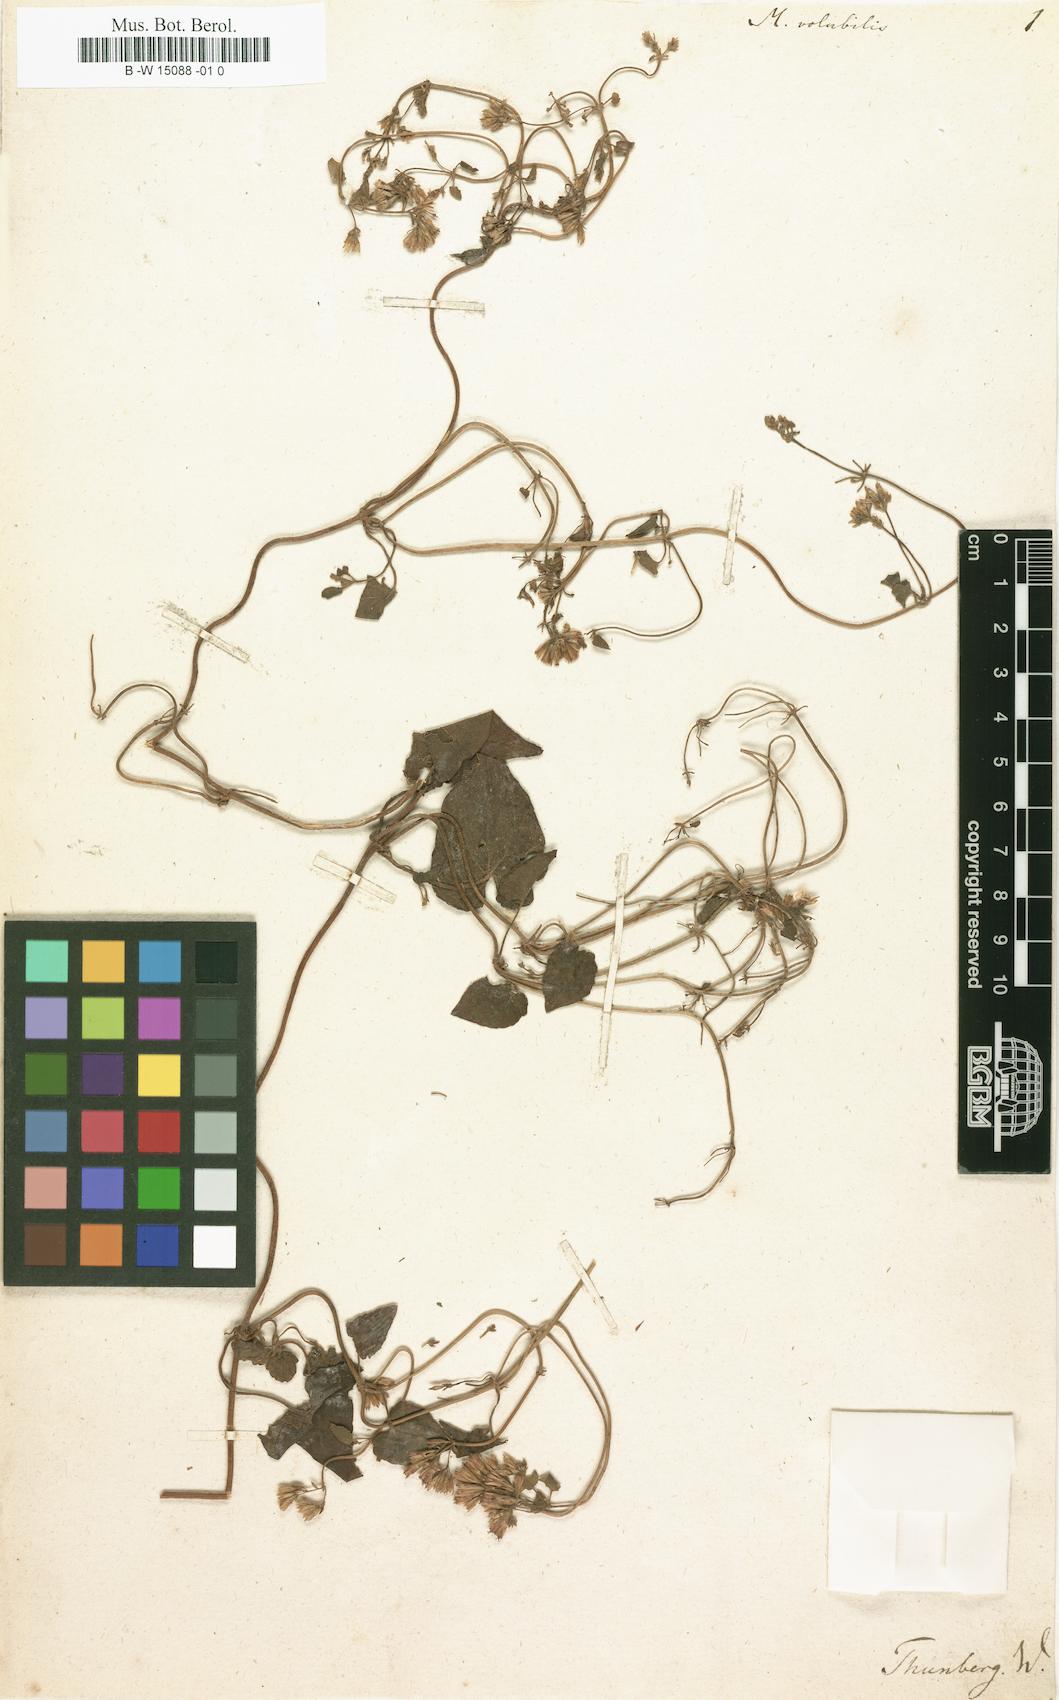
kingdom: Plantae
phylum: Tracheophyta
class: Magnoliopsida
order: Asterales
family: Asteraceae
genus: Mikania
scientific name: Mikania volubilis
